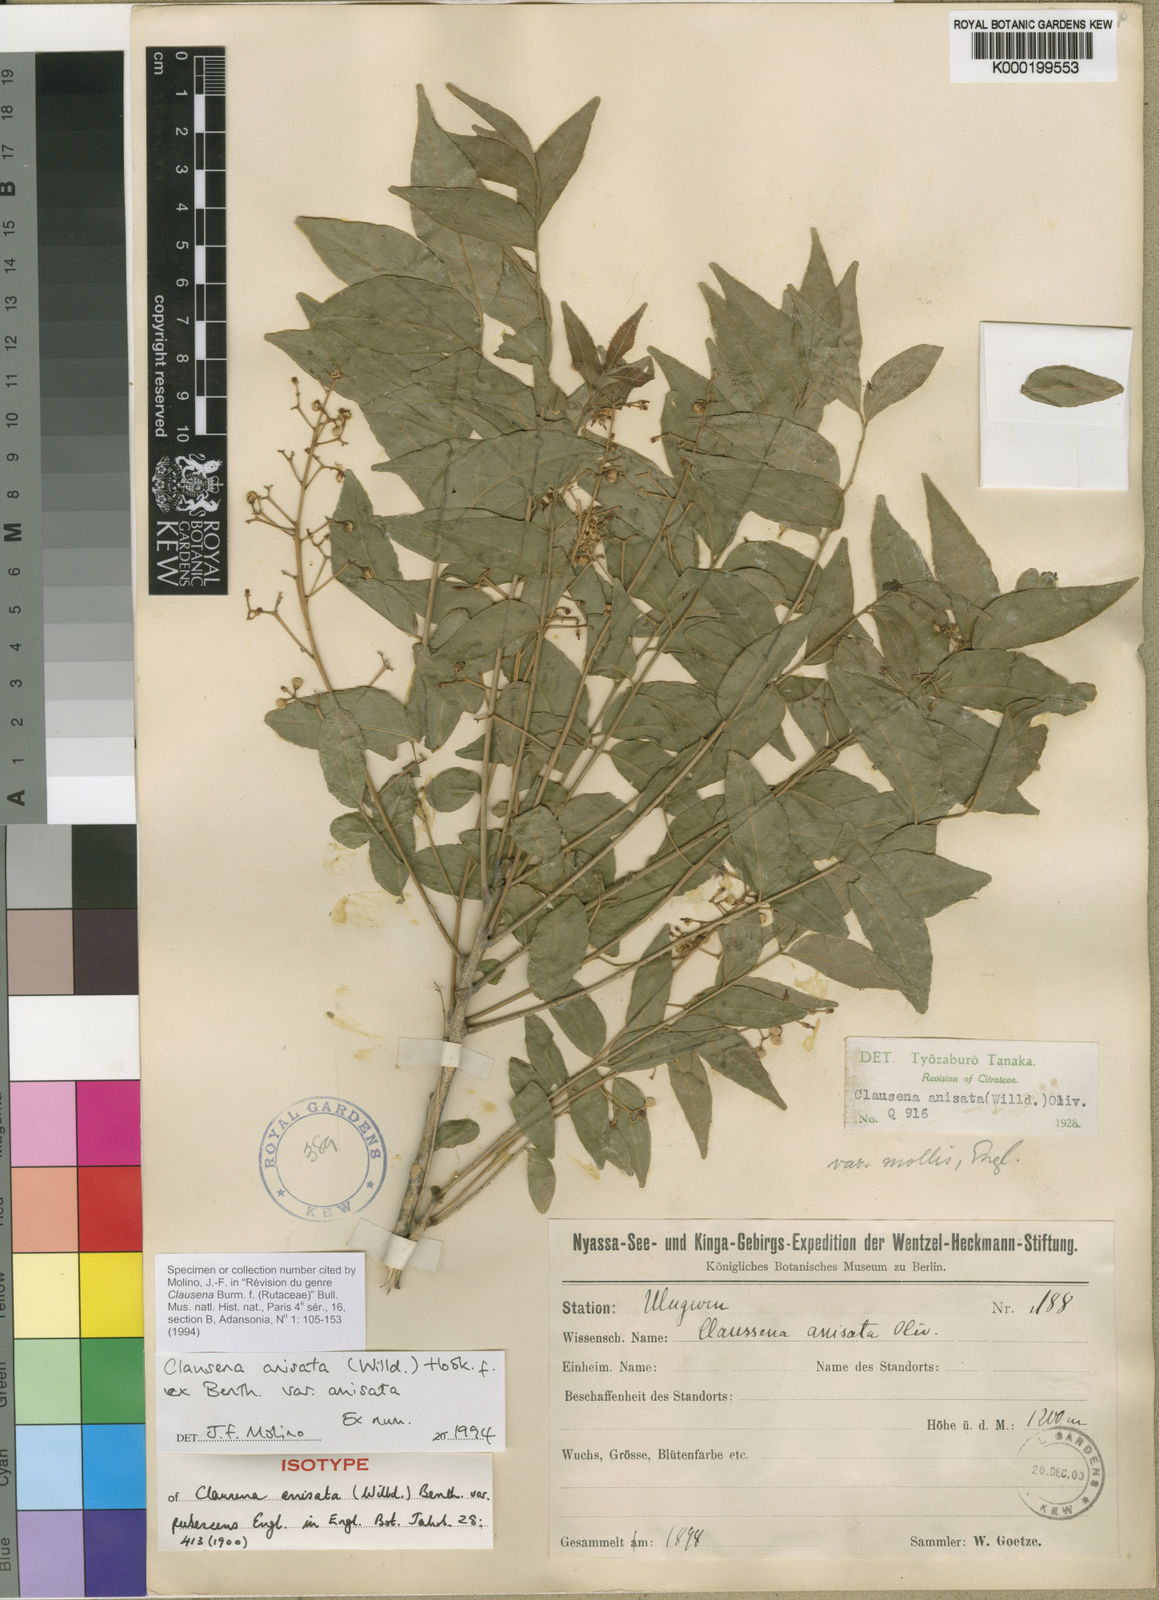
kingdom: Plantae
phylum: Tracheophyta
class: Magnoliopsida
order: Sapindales
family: Rutaceae
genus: Clausena
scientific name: Clausena anisata
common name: Horsewood
